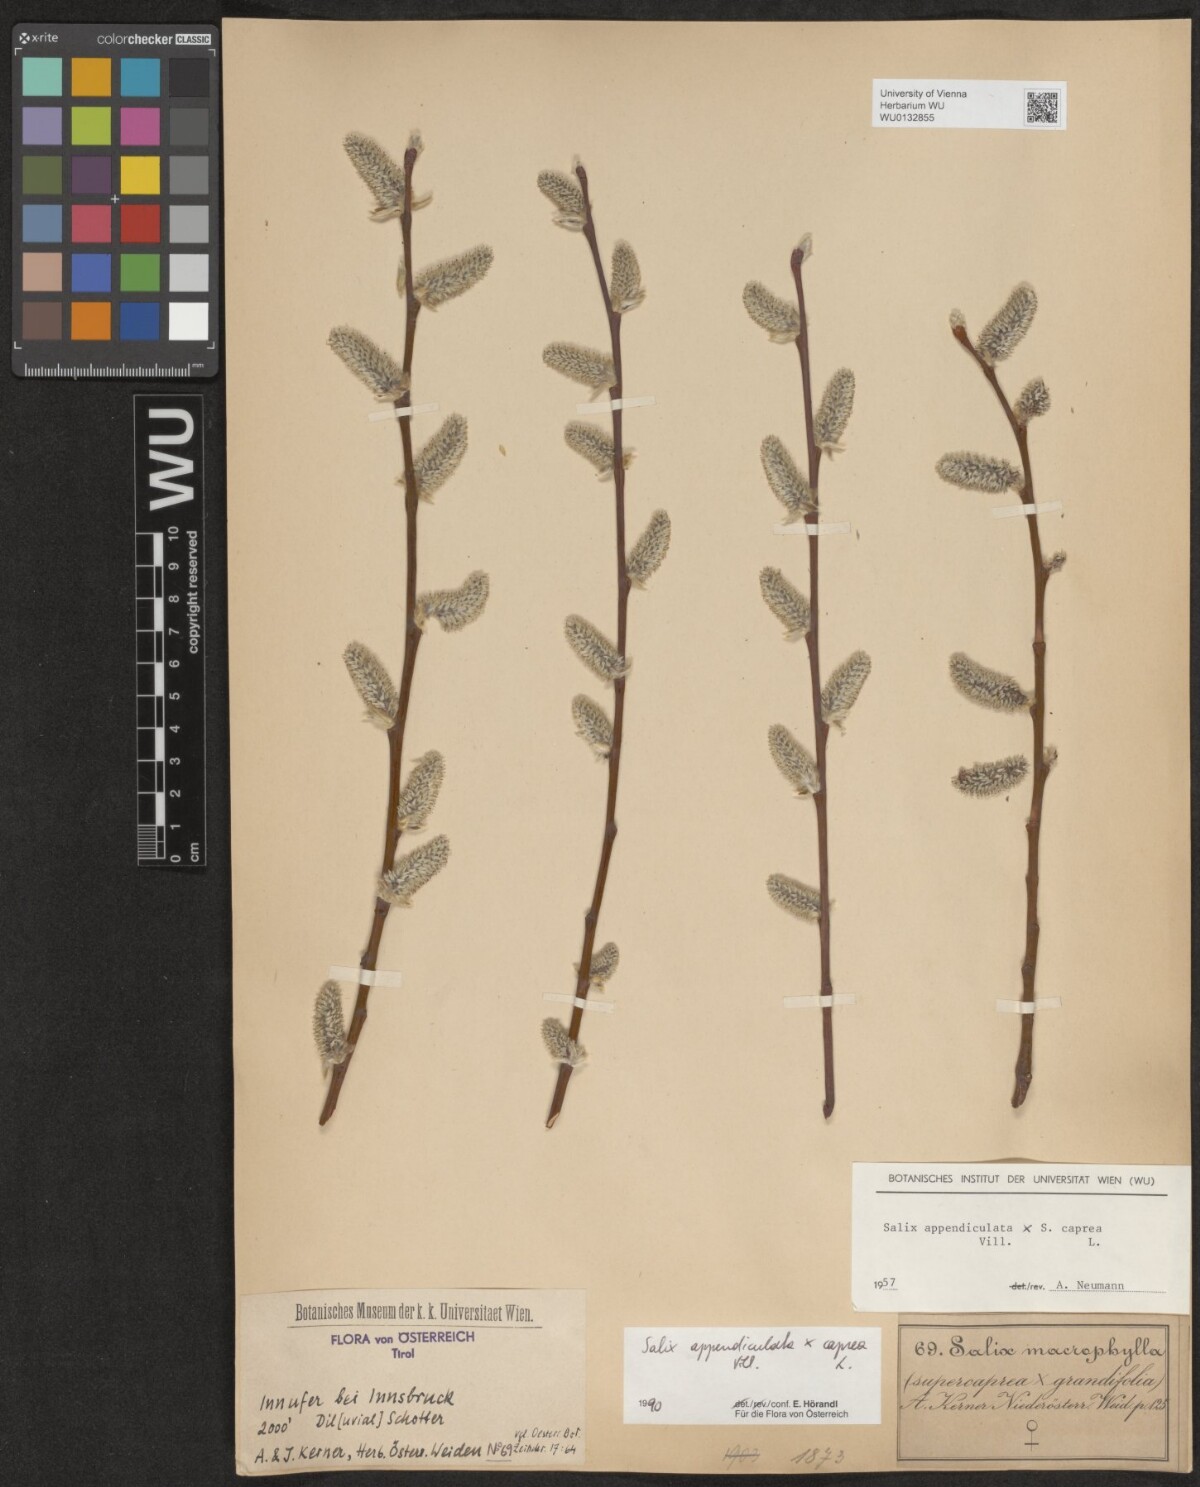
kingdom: Plantae
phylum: Tracheophyta
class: Magnoliopsida
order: Malpighiales
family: Salicaceae
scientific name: Salicaceae
